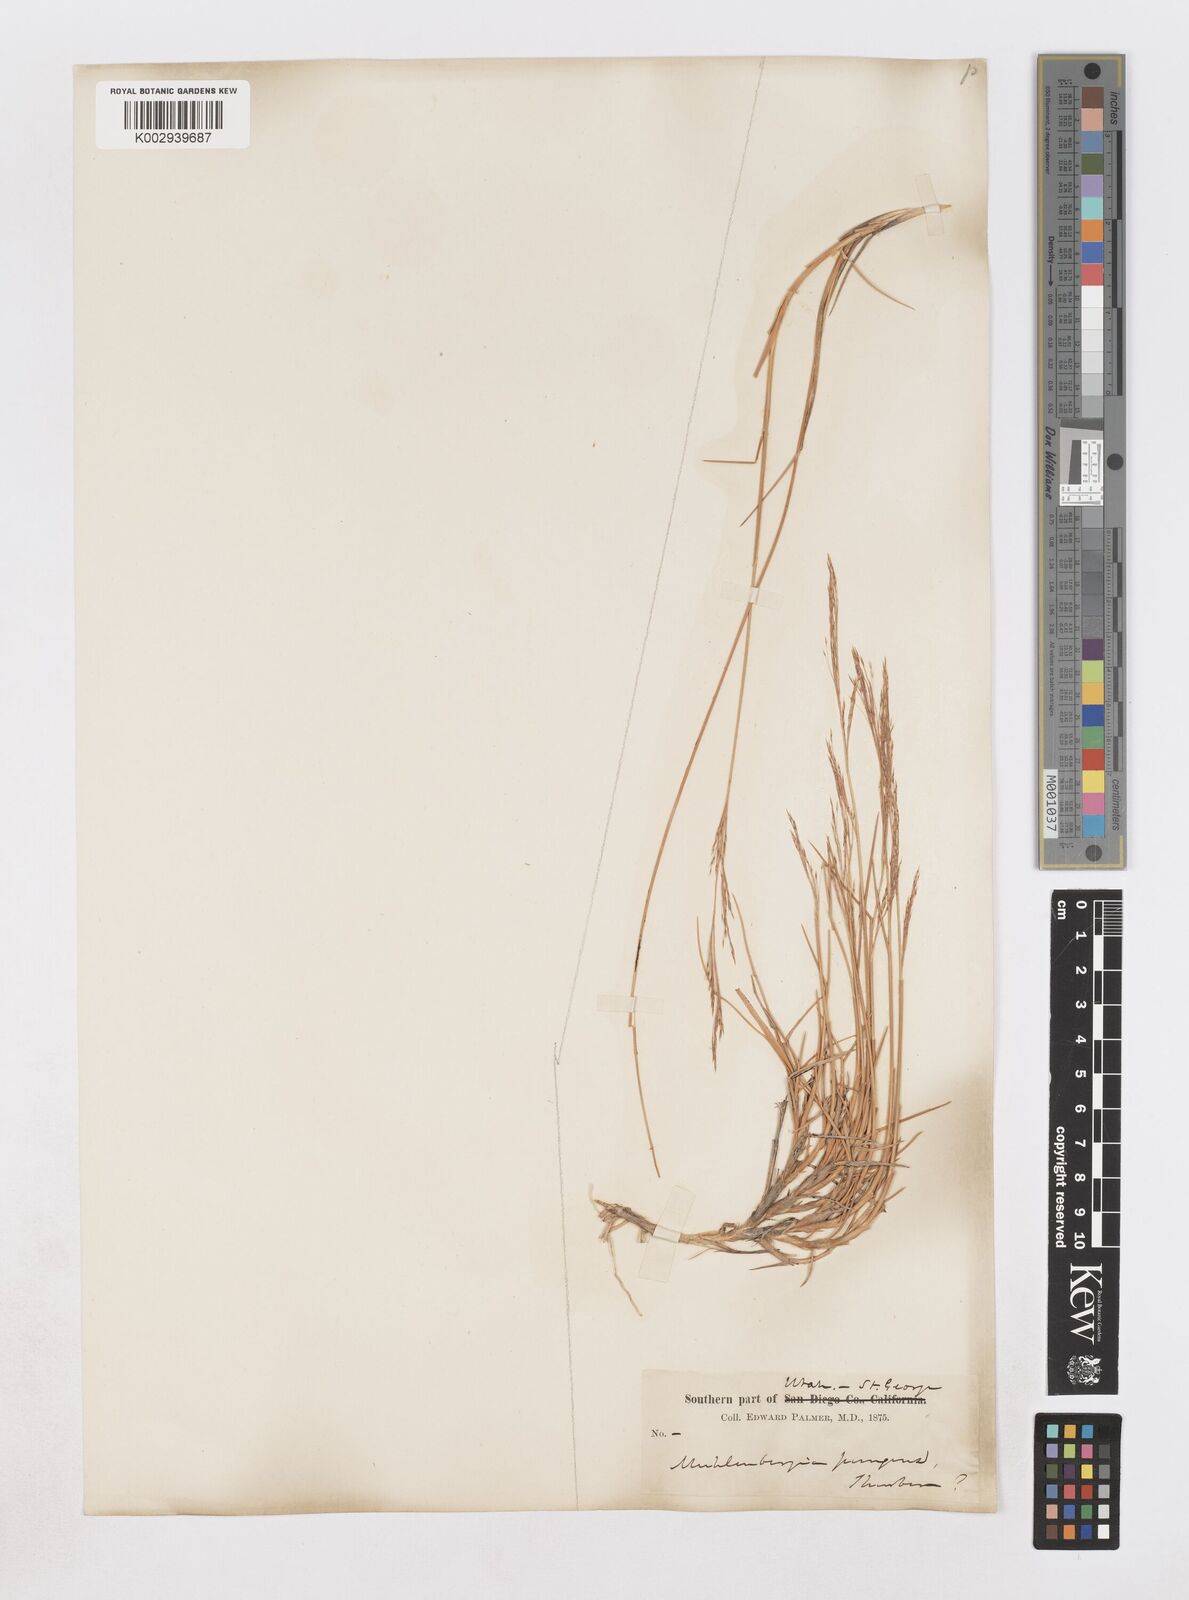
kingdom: Plantae
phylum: Tracheophyta
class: Liliopsida
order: Poales
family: Poaceae
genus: Muhlenbergia
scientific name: Muhlenbergia pungens
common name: Sandhill muhly
